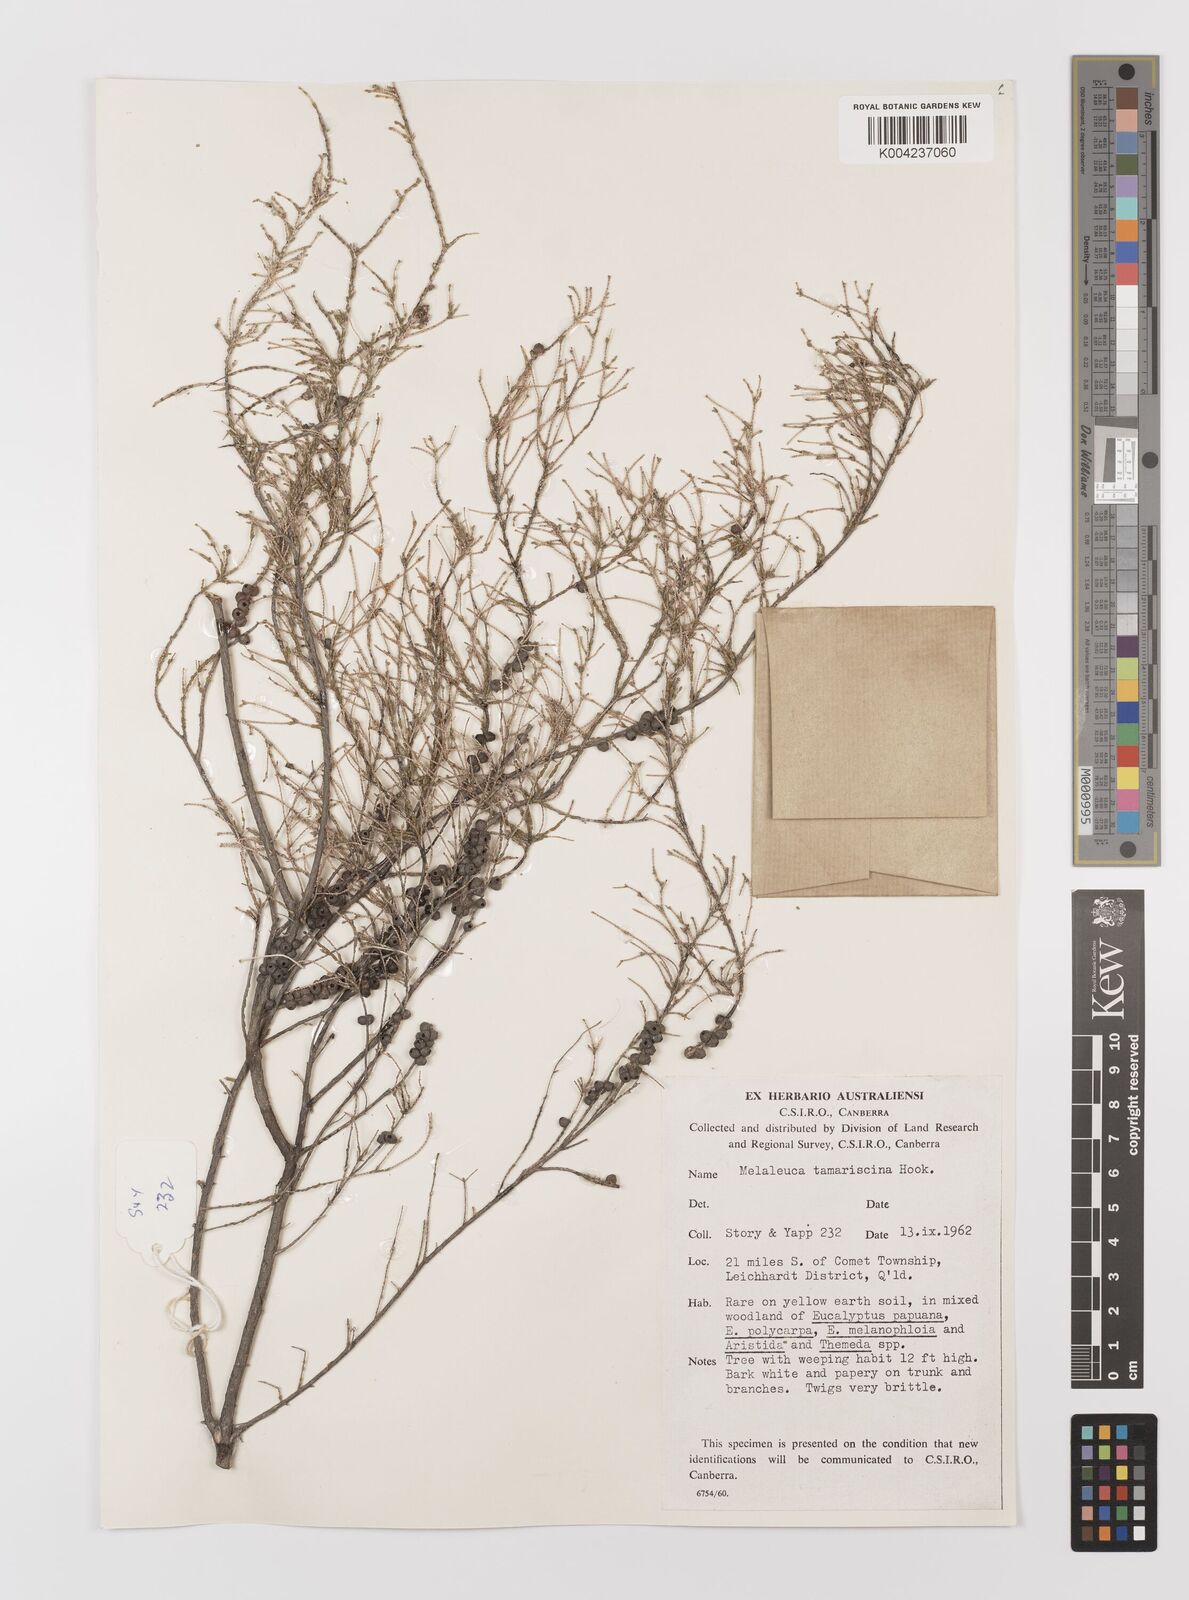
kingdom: Plantae
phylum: Tracheophyta
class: Magnoliopsida
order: Myrtales
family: Myrtaceae
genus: Melaleuca
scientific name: Melaleuca tamariscina
